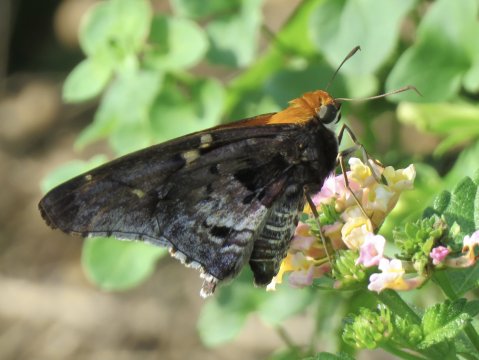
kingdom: Animalia
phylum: Arthropoda
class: Insecta
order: Lepidoptera
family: Hesperiidae
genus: Proteides
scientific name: Proteides mercurius
